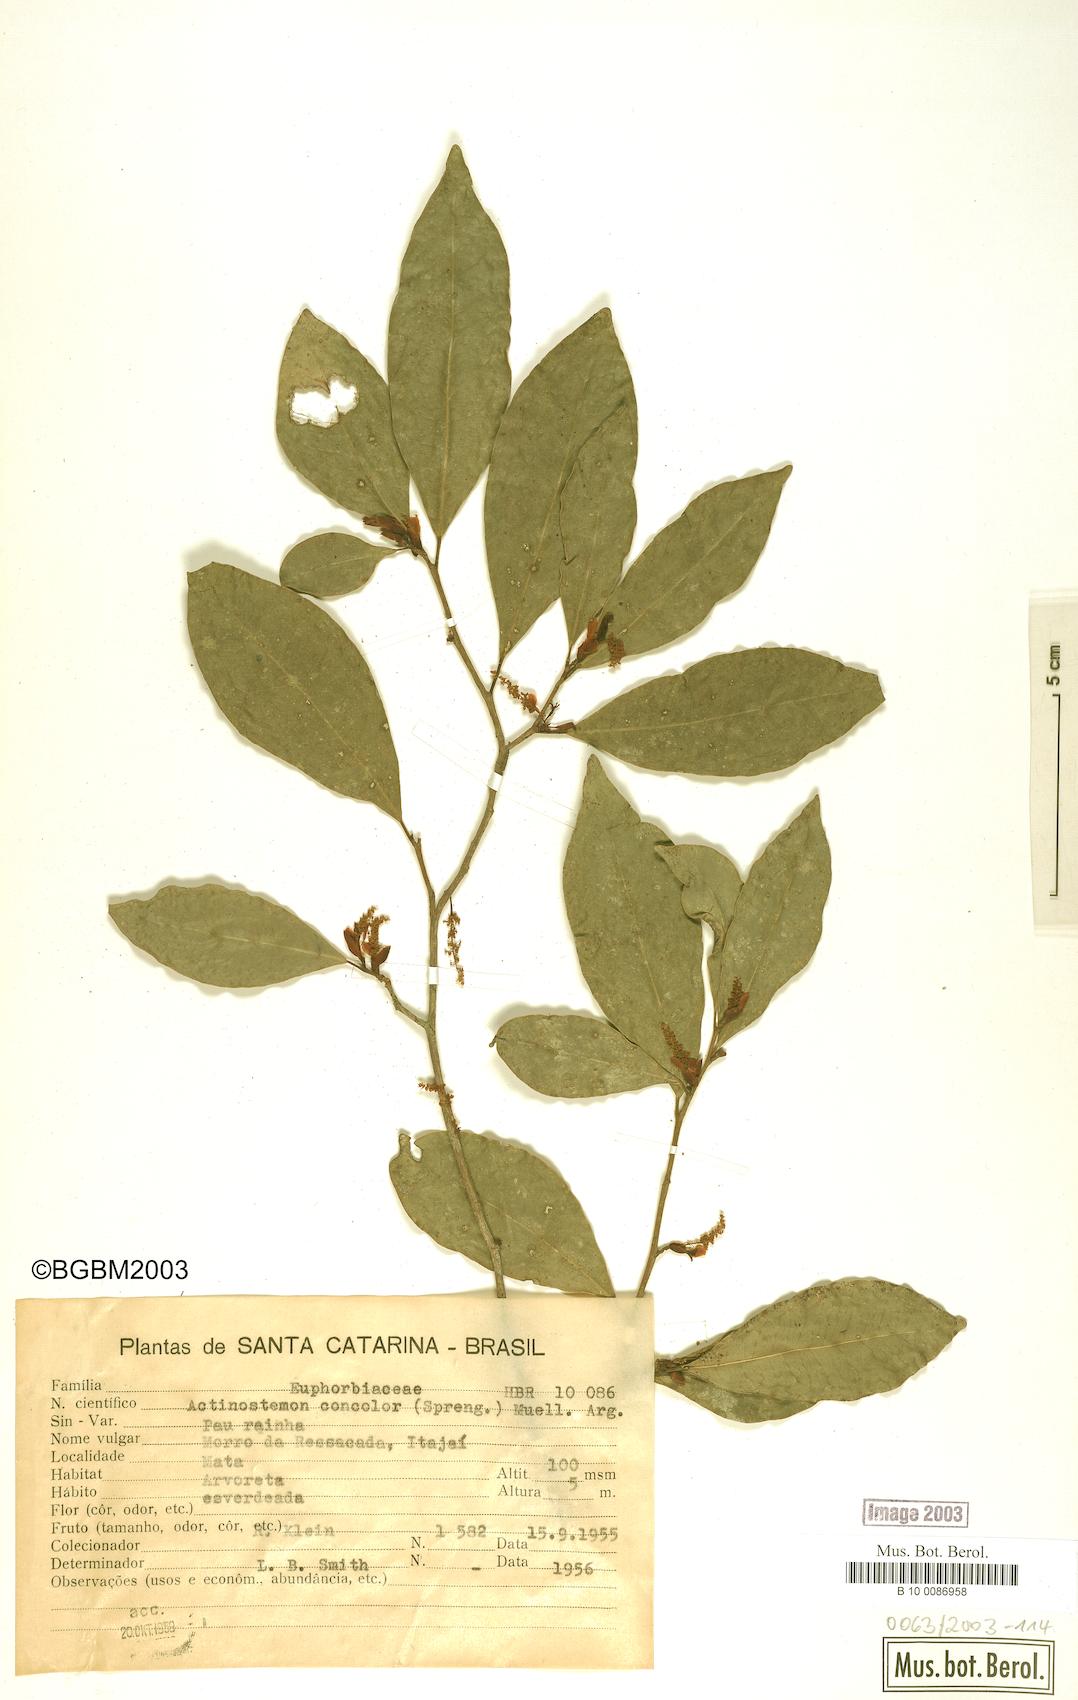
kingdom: Plantae
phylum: Tracheophyta
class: Magnoliopsida
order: Malpighiales
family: Euphorbiaceae
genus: Actinostemon
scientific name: Actinostemon concolor
